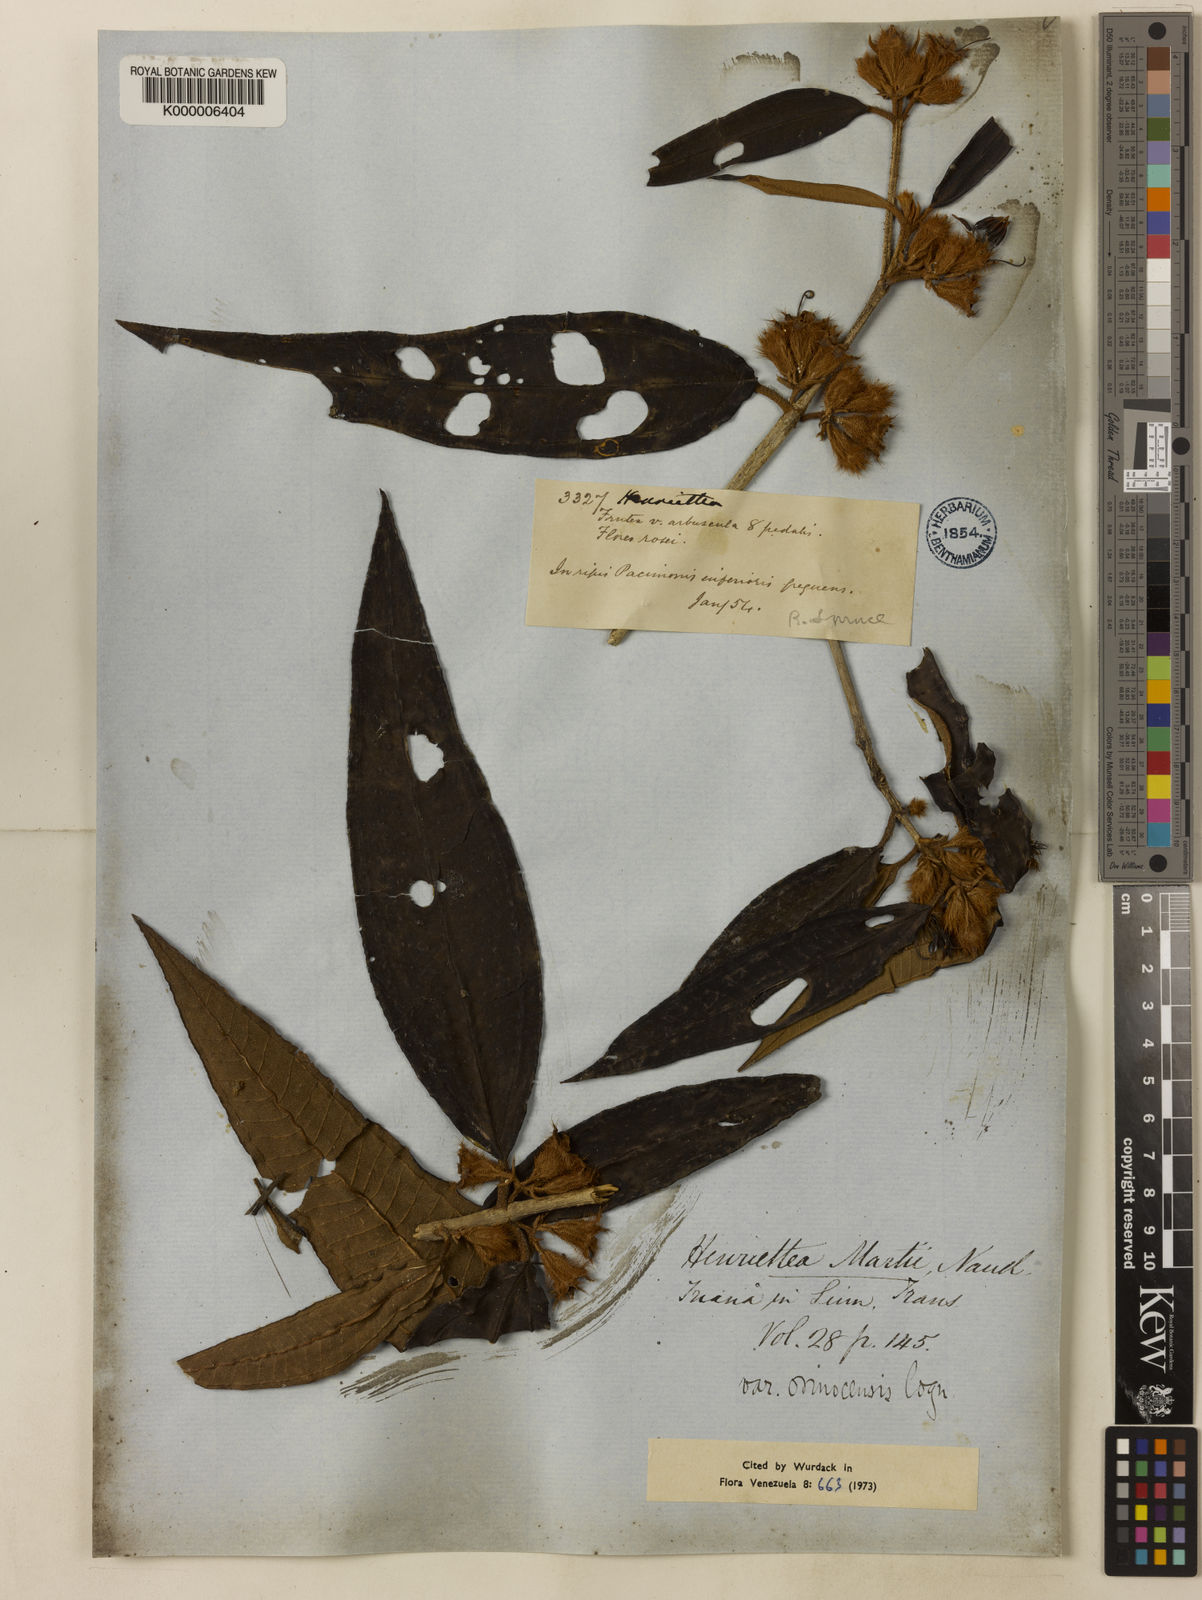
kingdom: Plantae
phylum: Tracheophyta
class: Magnoliopsida
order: Myrtales
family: Melastomataceae
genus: Henriettea
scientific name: Henriettea martiusii
